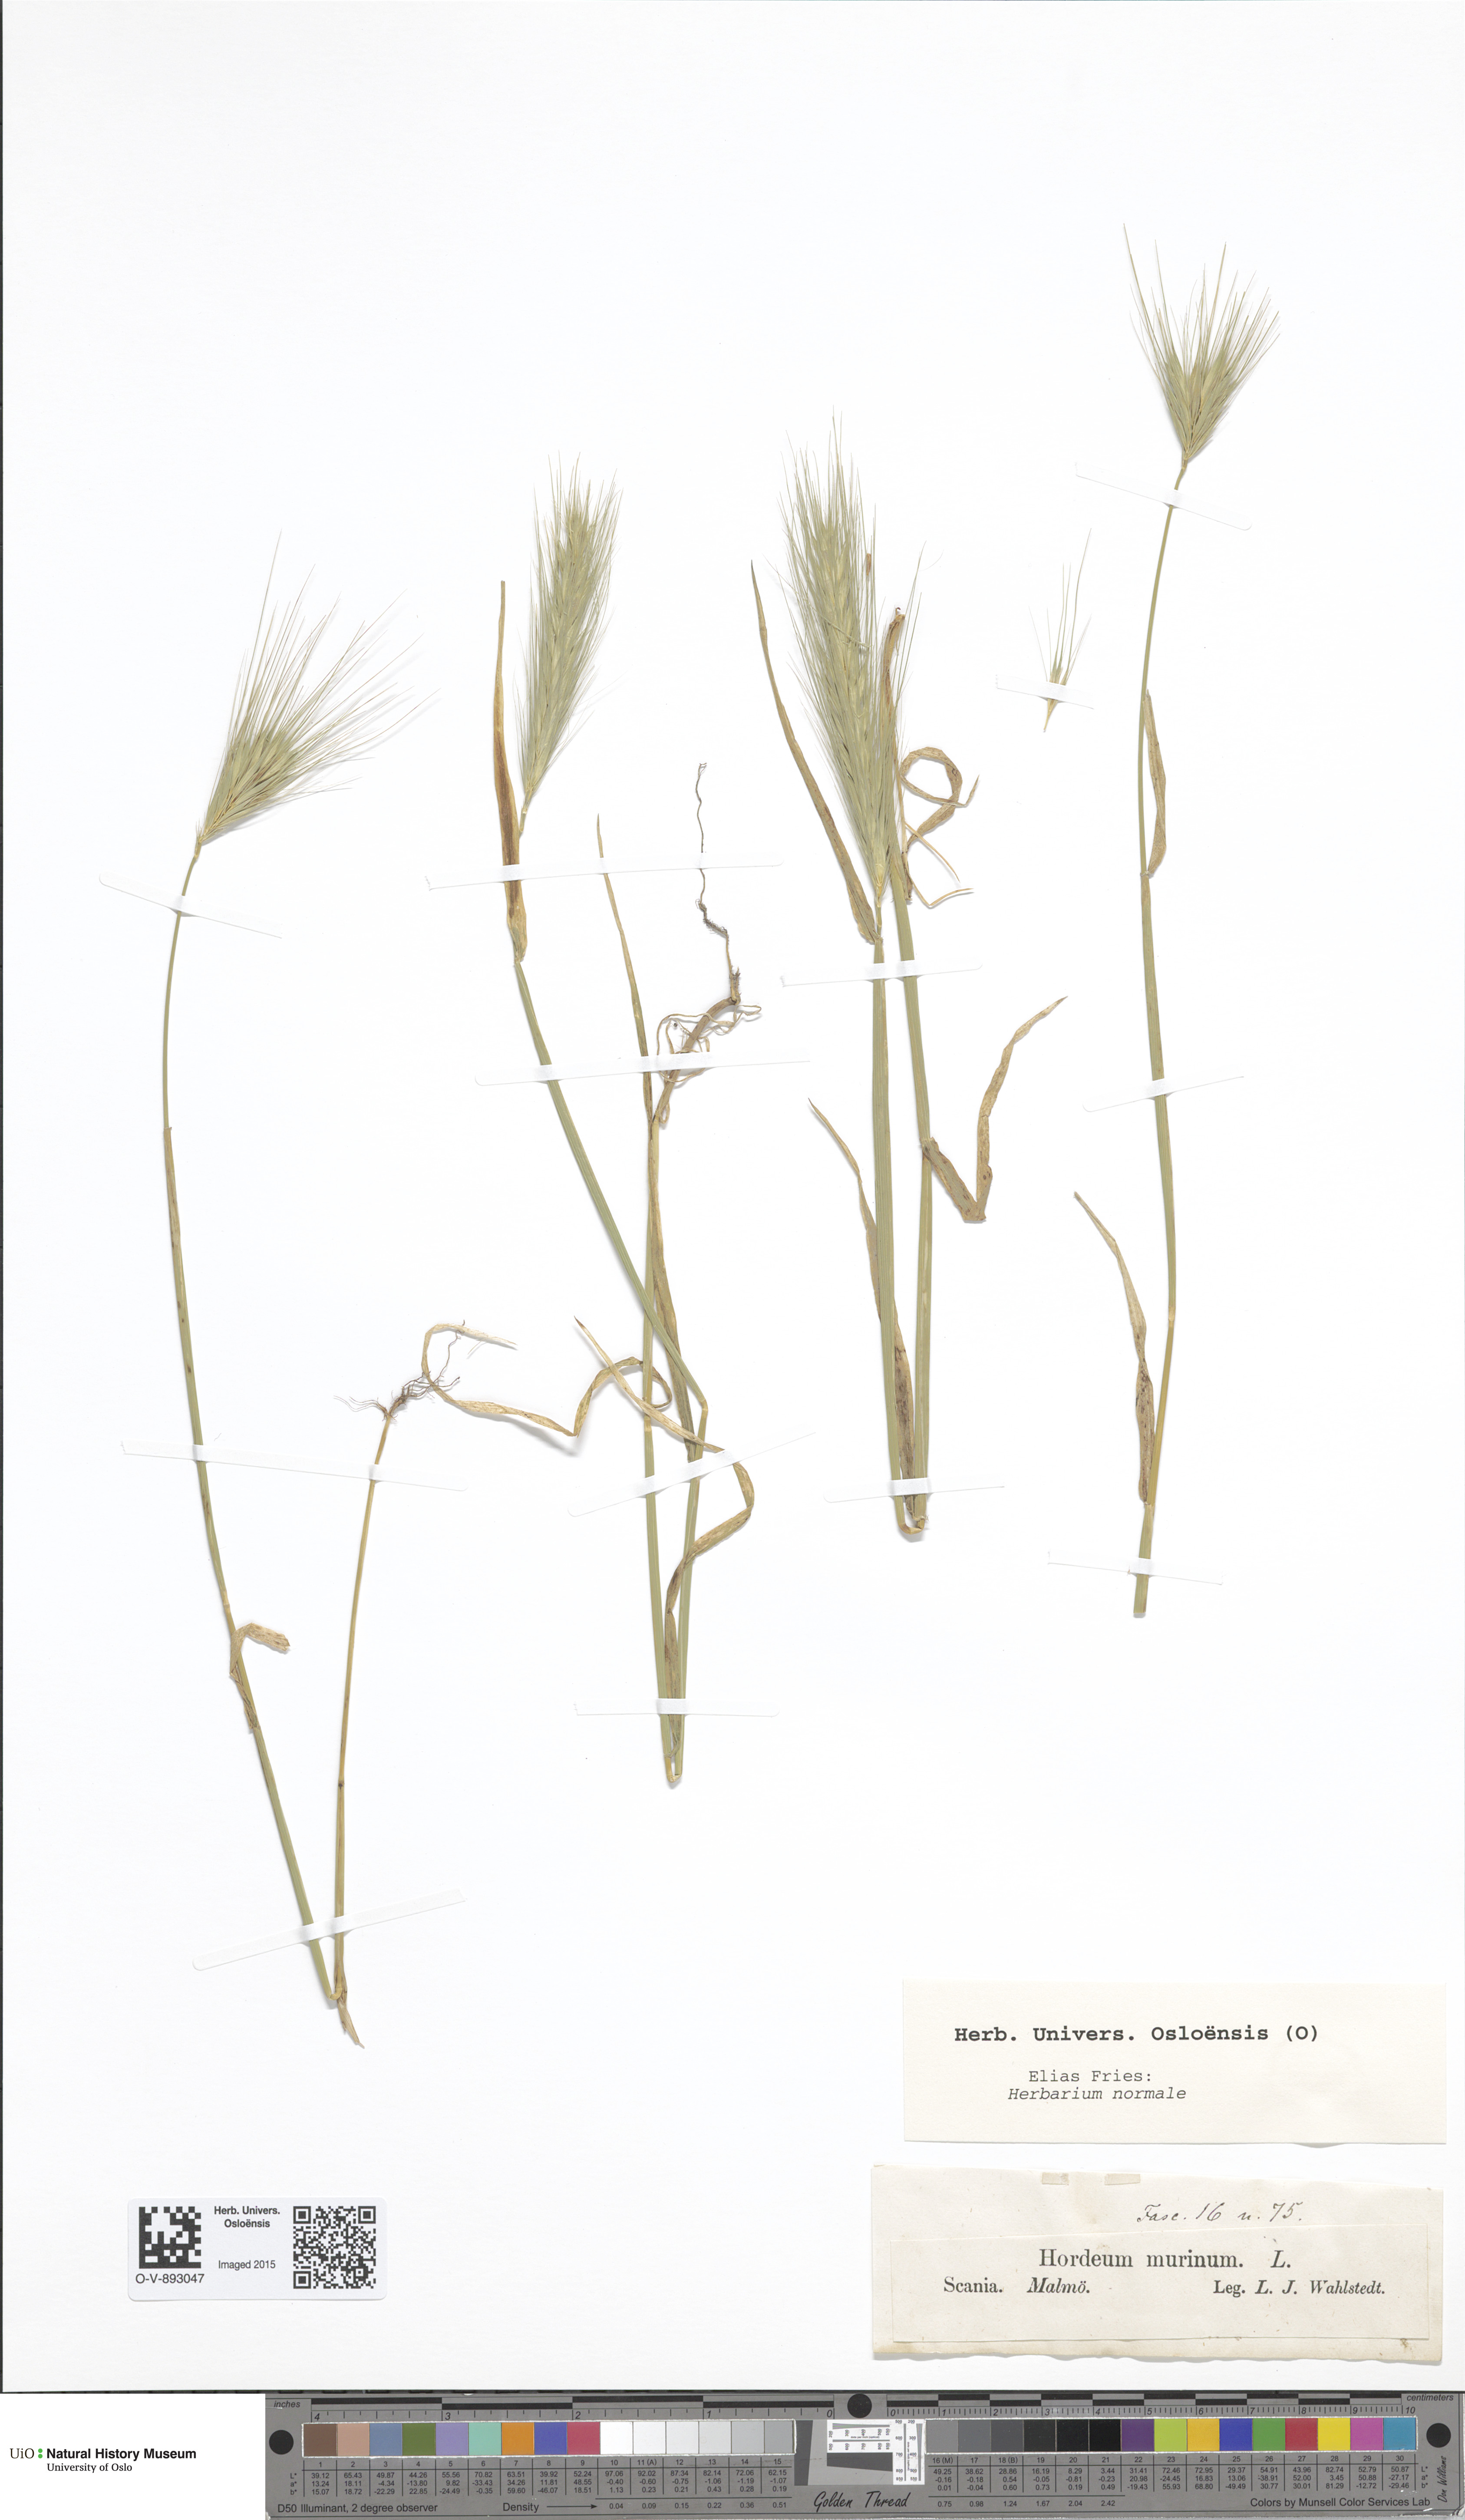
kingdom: Plantae
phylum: Tracheophyta
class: Liliopsida
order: Poales
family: Poaceae
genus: Hordeum
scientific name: Hordeum murinum
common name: Wall barley
